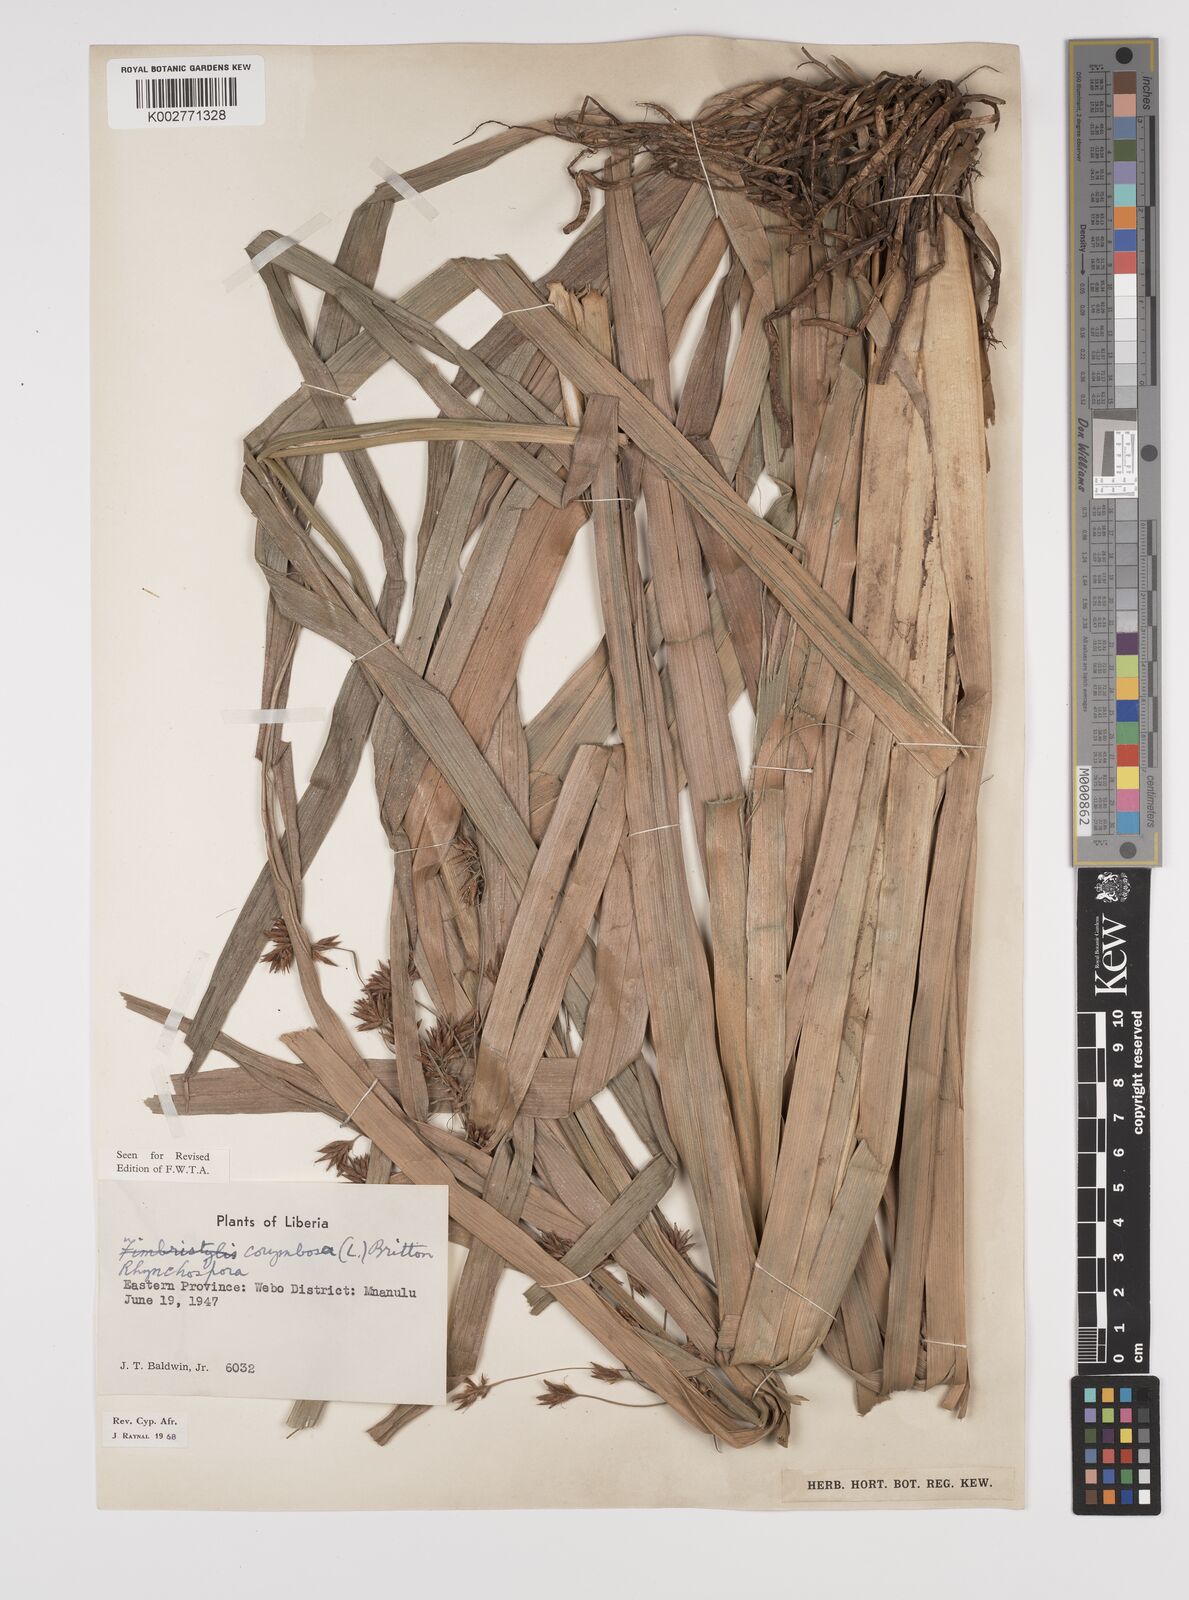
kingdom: Plantae
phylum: Tracheophyta
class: Liliopsida
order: Poales
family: Cyperaceae
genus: Rhynchospora
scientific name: Rhynchospora corymbosa
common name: Golden beak sedge
